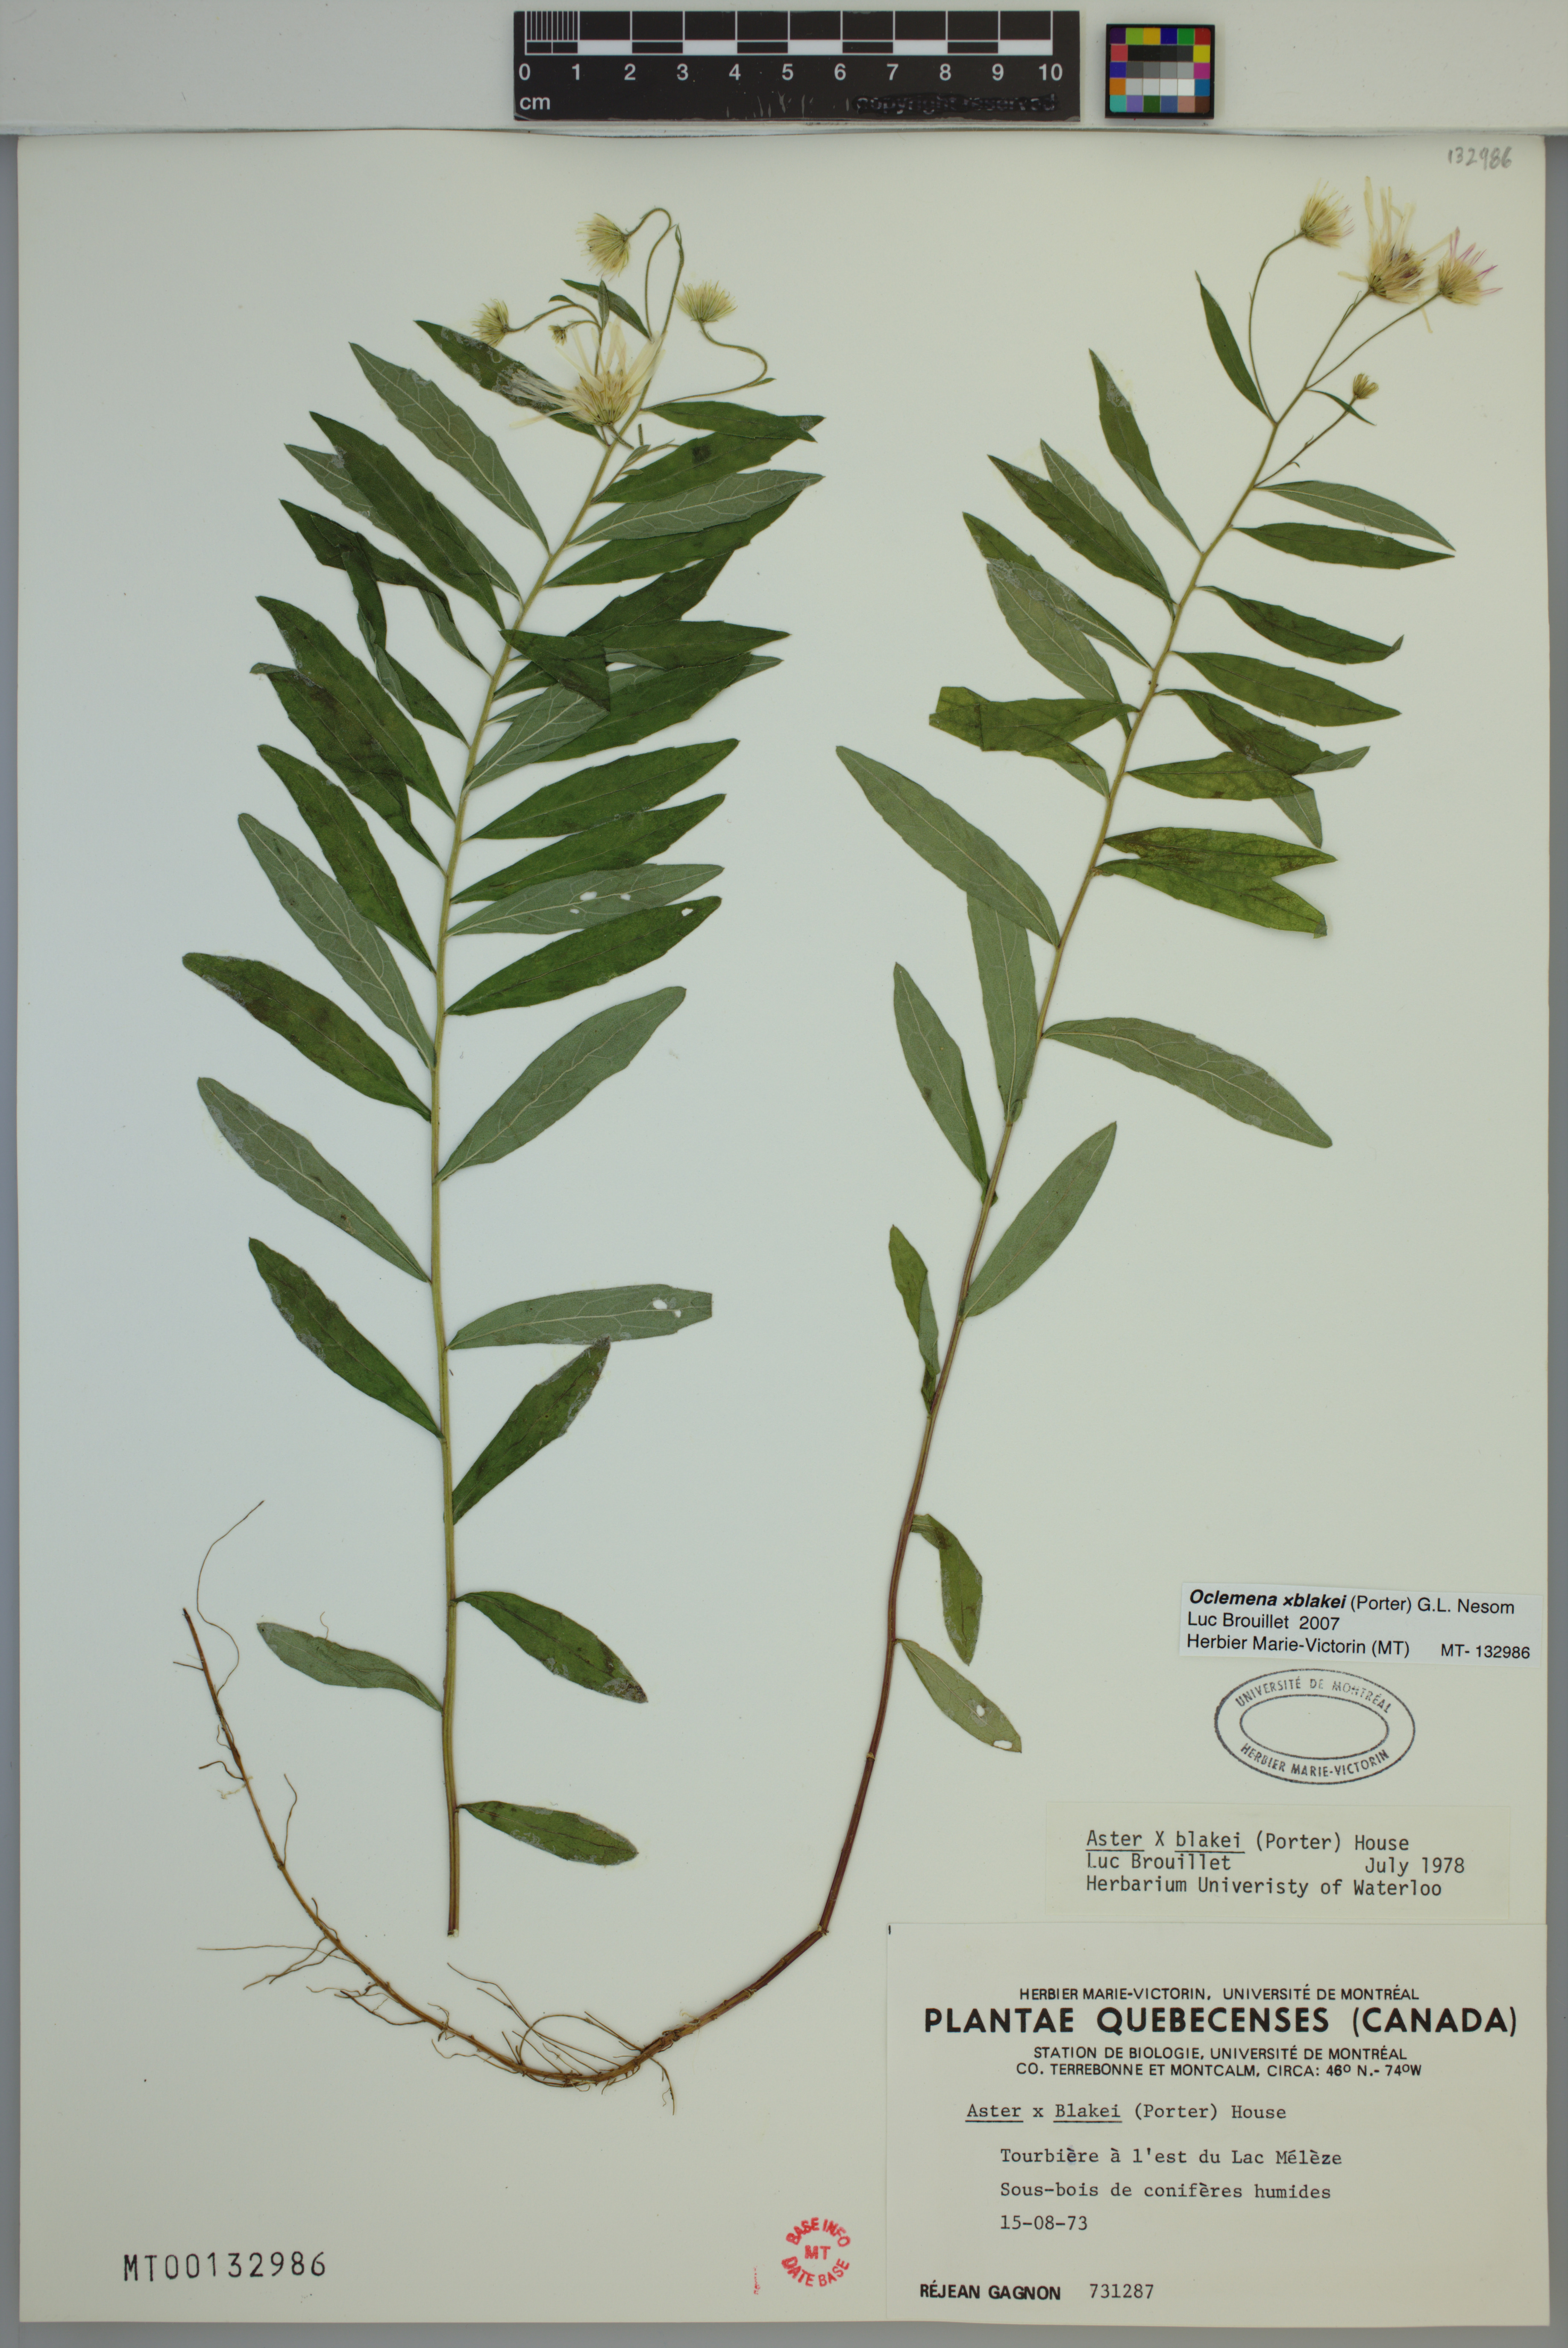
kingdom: Plantae
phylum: Tracheophyta
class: Magnoliopsida
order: Asterales
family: Asteraceae
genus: Oclemena
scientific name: Oclemena blakei
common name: Blake's aster
